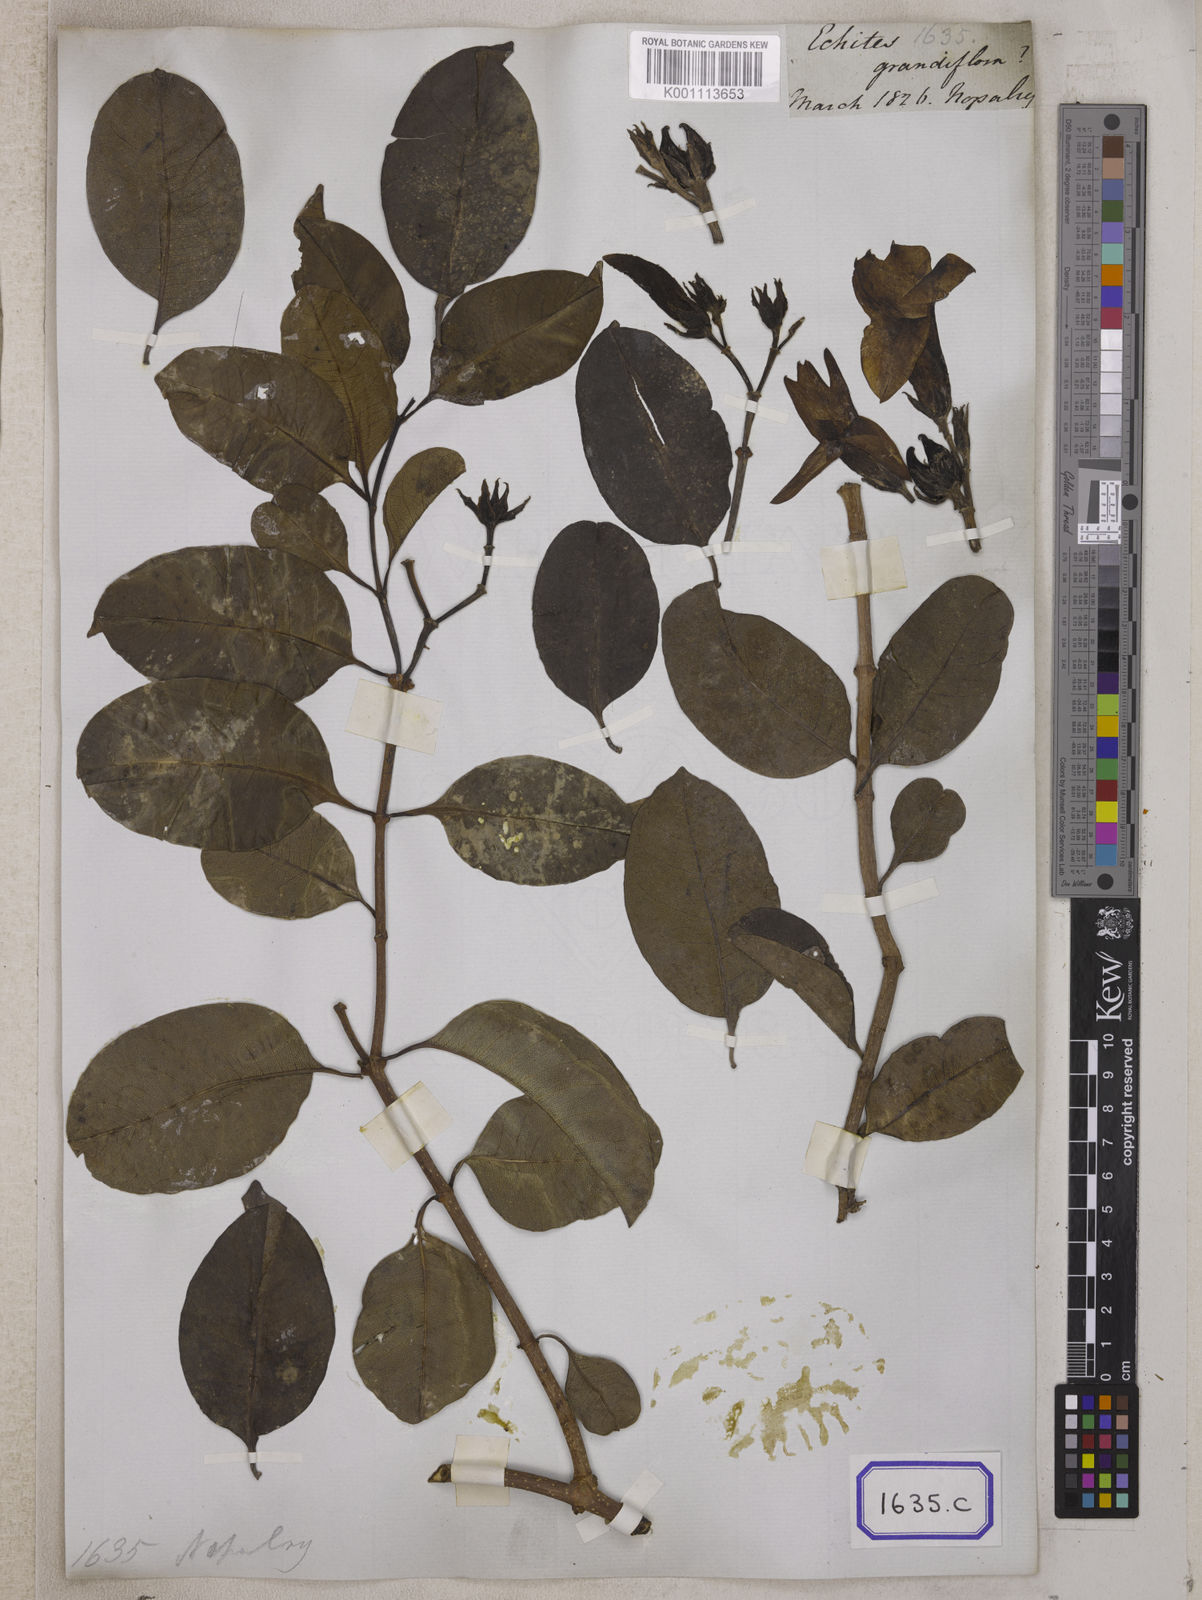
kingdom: Plantae
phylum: Tracheophyta
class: Magnoliopsida
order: Gentianales
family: Apocynaceae
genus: Cryptostegia
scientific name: Cryptostegia grandiflora
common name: Palay rubbervine
